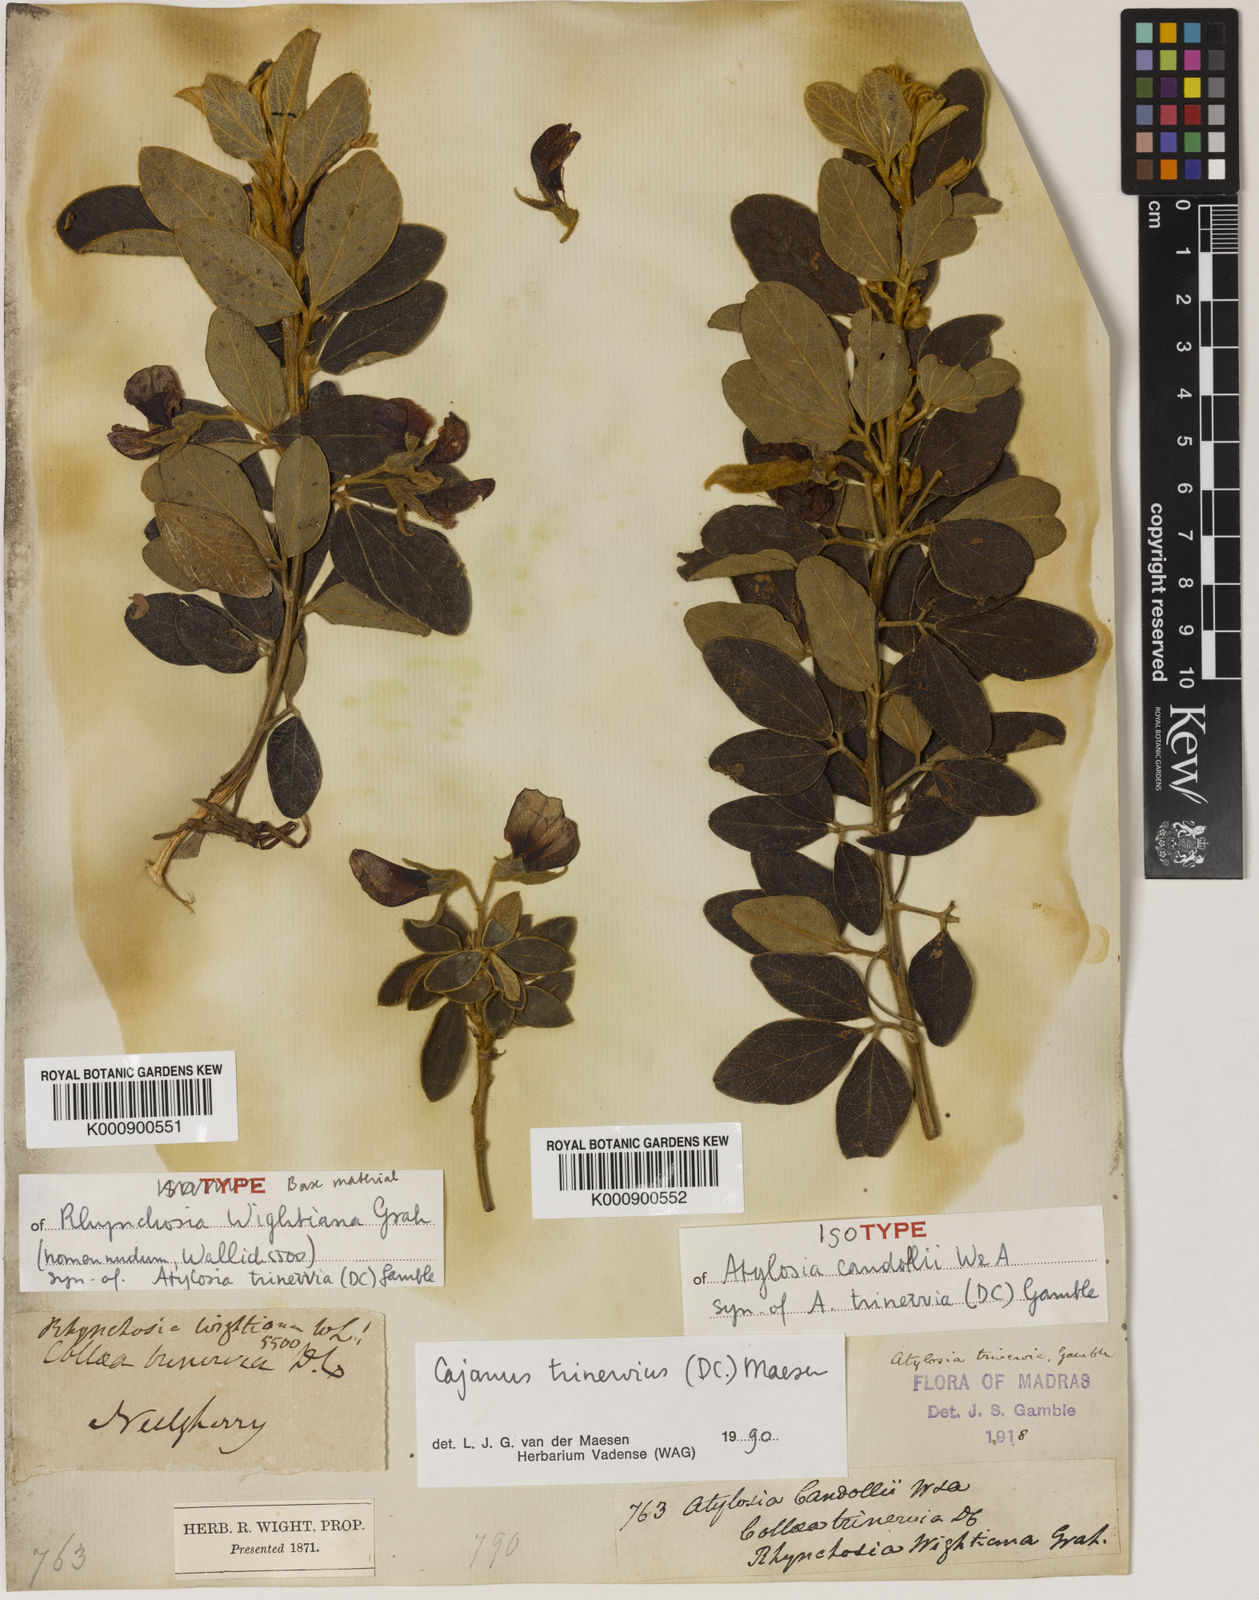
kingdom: Plantae
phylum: Tracheophyta
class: Magnoliopsida
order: Fabales
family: Fabaceae
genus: Cajanus
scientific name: Cajanus
